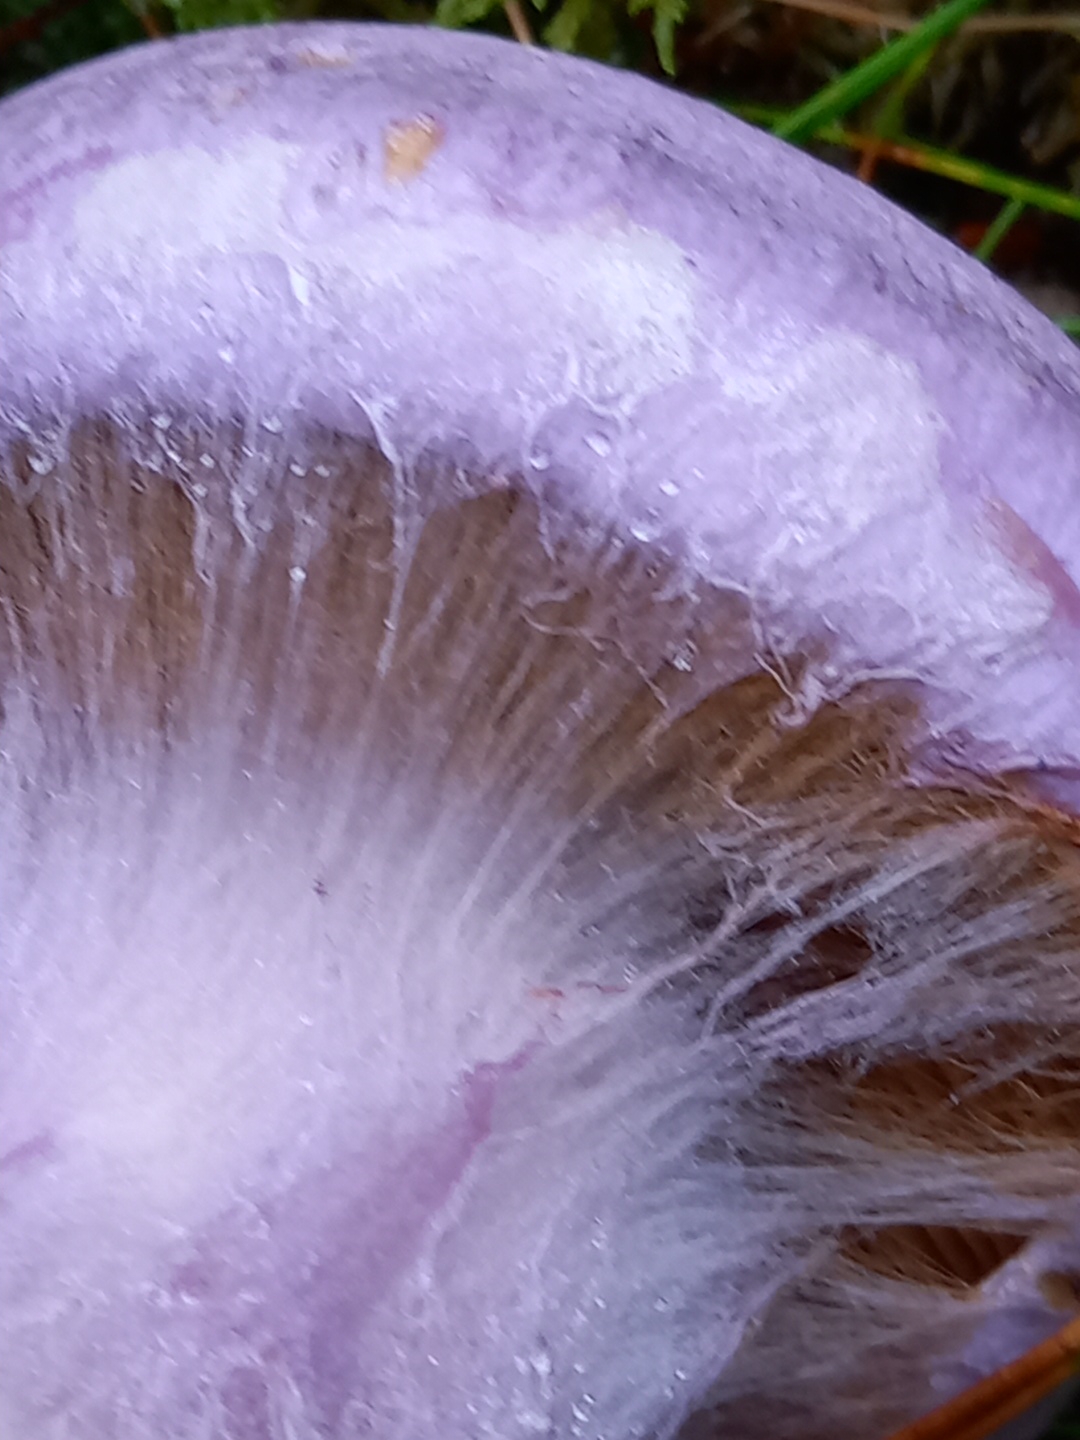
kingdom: Fungi
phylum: Basidiomycota
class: Agaricomycetes
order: Agaricales
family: Cortinariaceae
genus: Cortinarius
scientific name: Cortinarius traganus
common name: safrankødet slørhat
